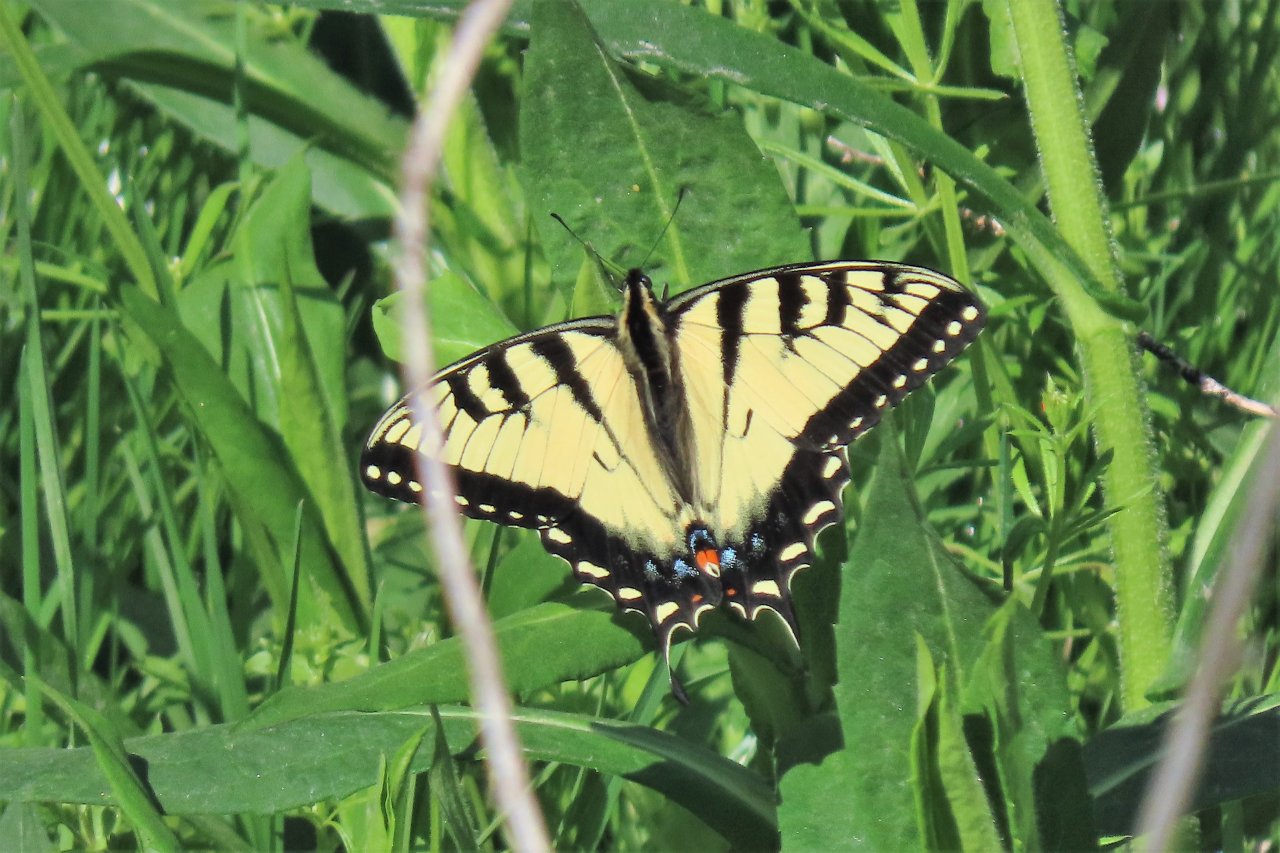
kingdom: Animalia
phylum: Arthropoda
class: Insecta
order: Lepidoptera
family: Papilionidae
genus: Pterourus
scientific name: Pterourus glaucus
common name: Eastern Tiger Swallowtail
